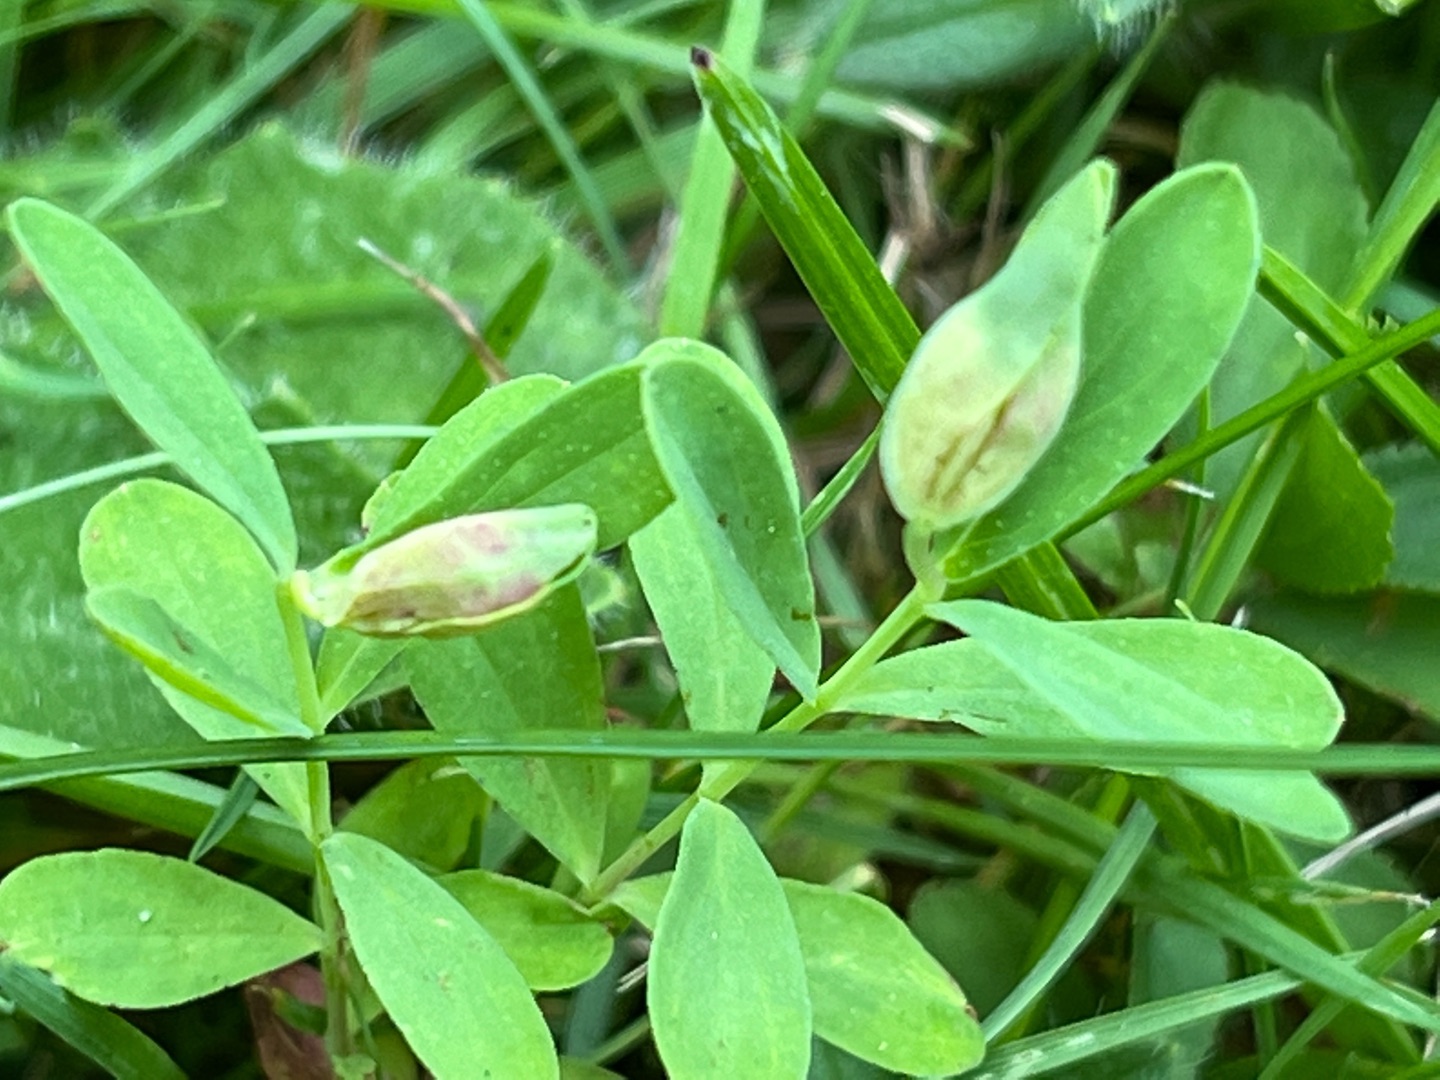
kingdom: Animalia
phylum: Arthropoda
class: Insecta
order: Diptera
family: Cecidomyiidae
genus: Dasineura
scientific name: Dasineura serotina
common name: Hvid perikongalmyg
